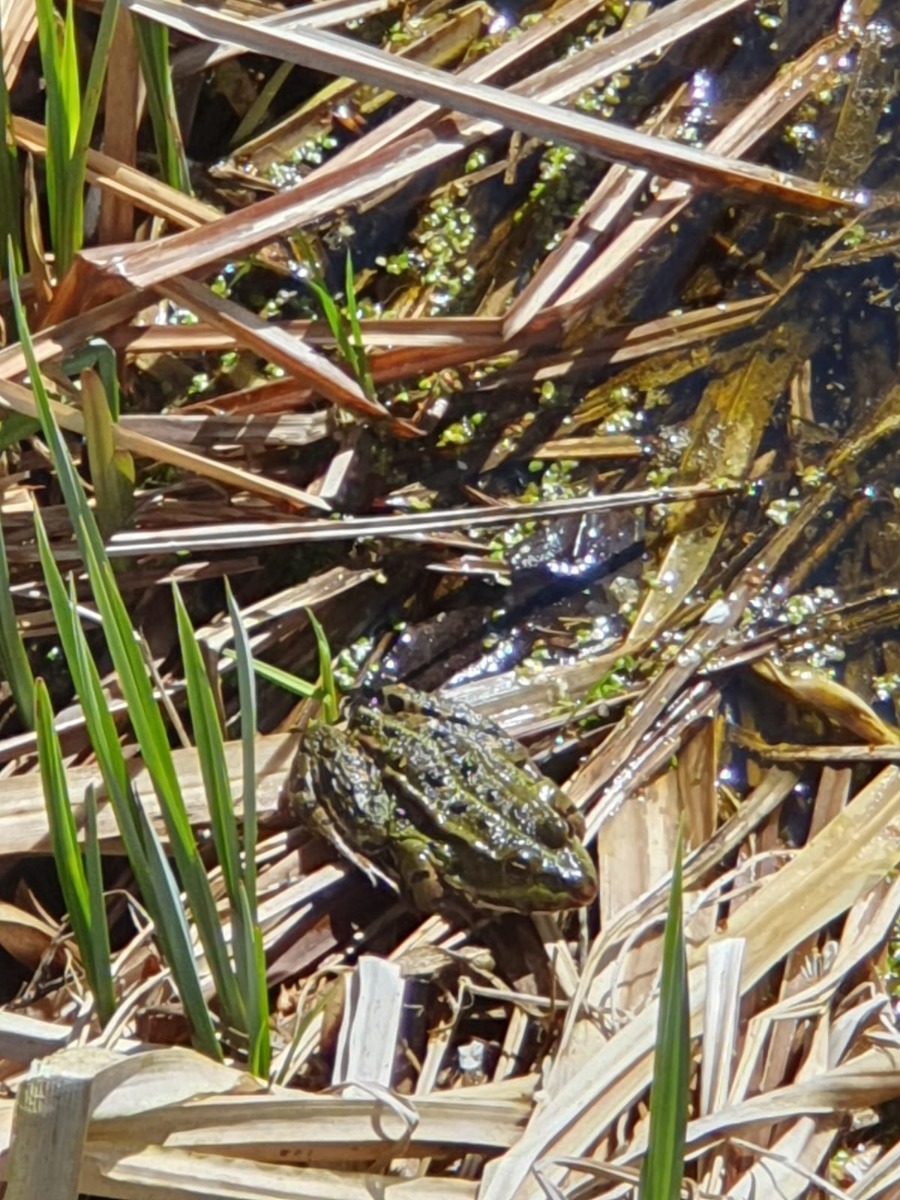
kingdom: Animalia
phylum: Chordata
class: Amphibia
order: Anura
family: Ranidae
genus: Pelophylax
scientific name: Pelophylax lessonae
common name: Grøn frø
